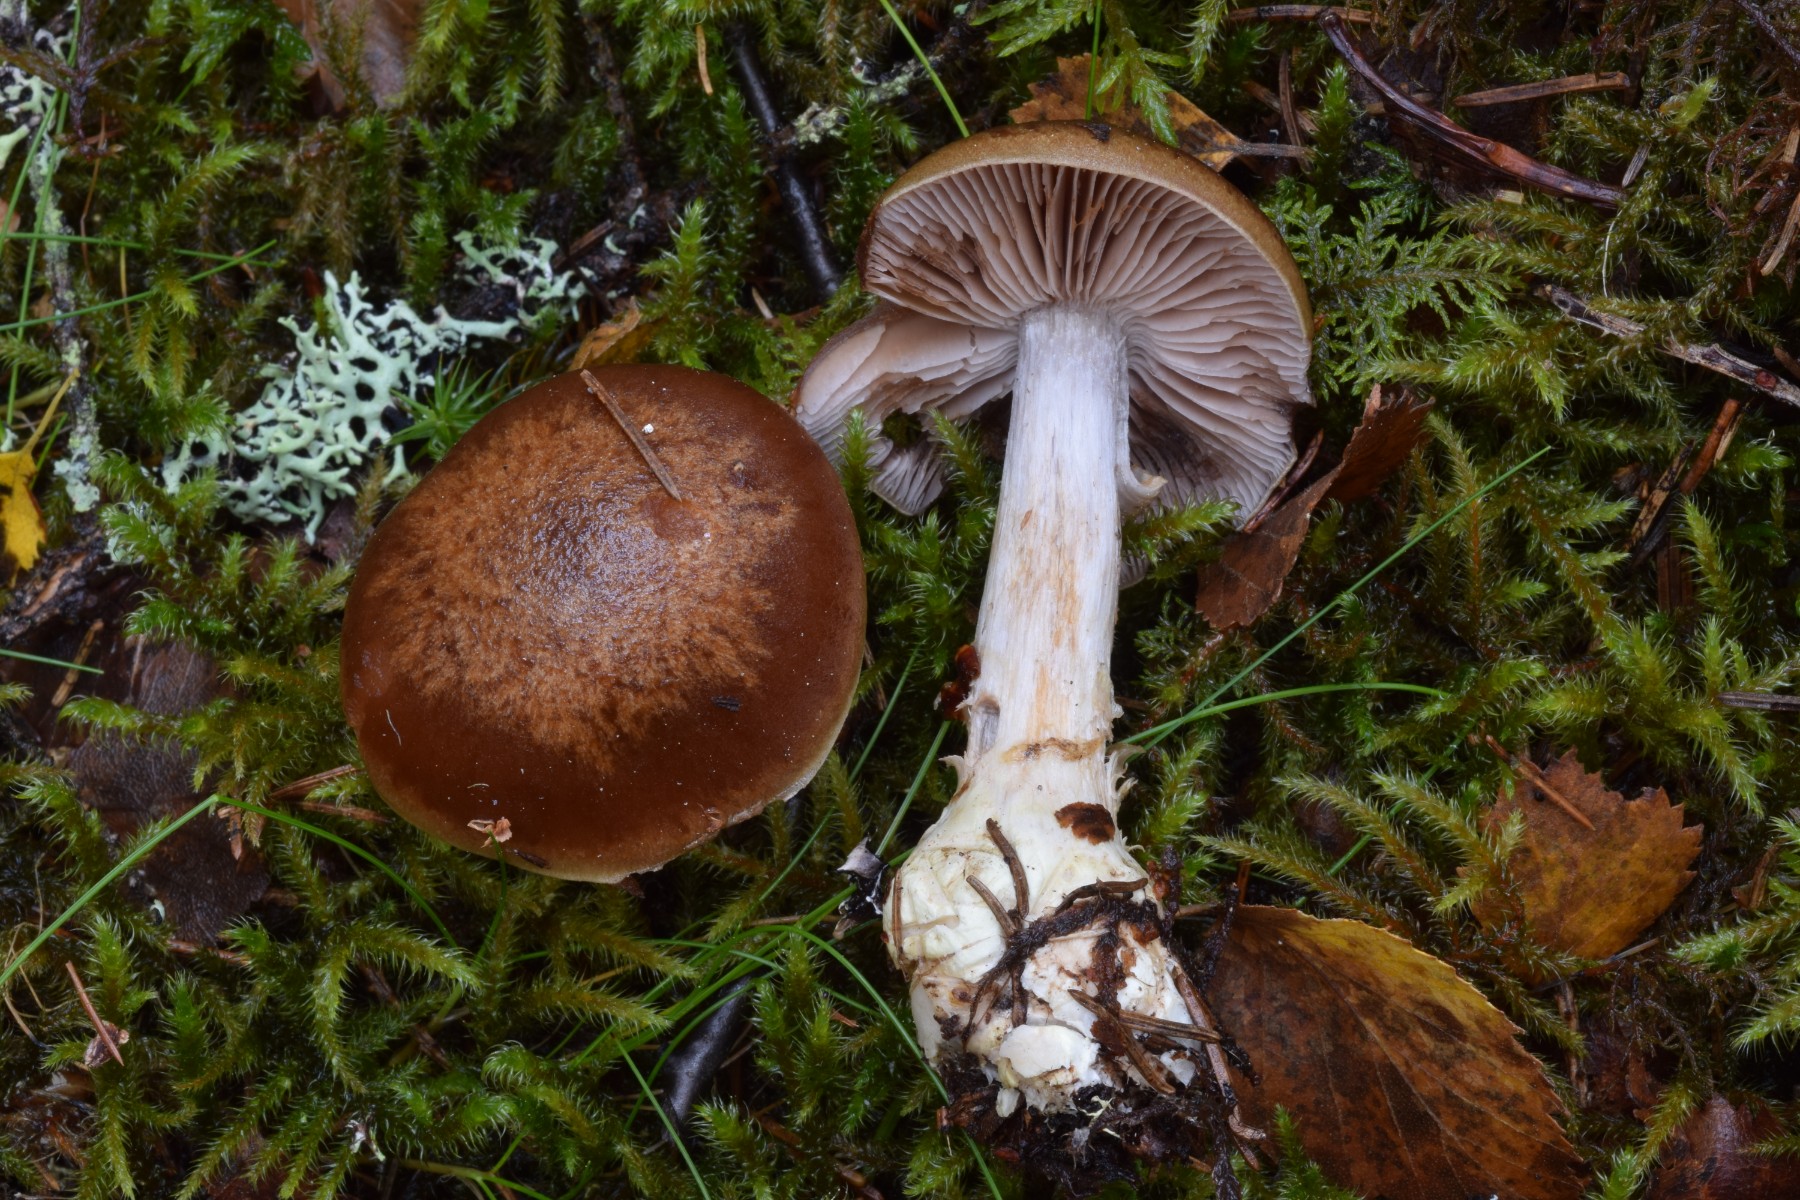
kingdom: Fungi
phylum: Basidiomycota
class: Agaricomycetes
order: Agaricales
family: Cortinariaceae
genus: Thaxterogaster
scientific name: Thaxterogaster sphagnophilus
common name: vandplettet slørhat
